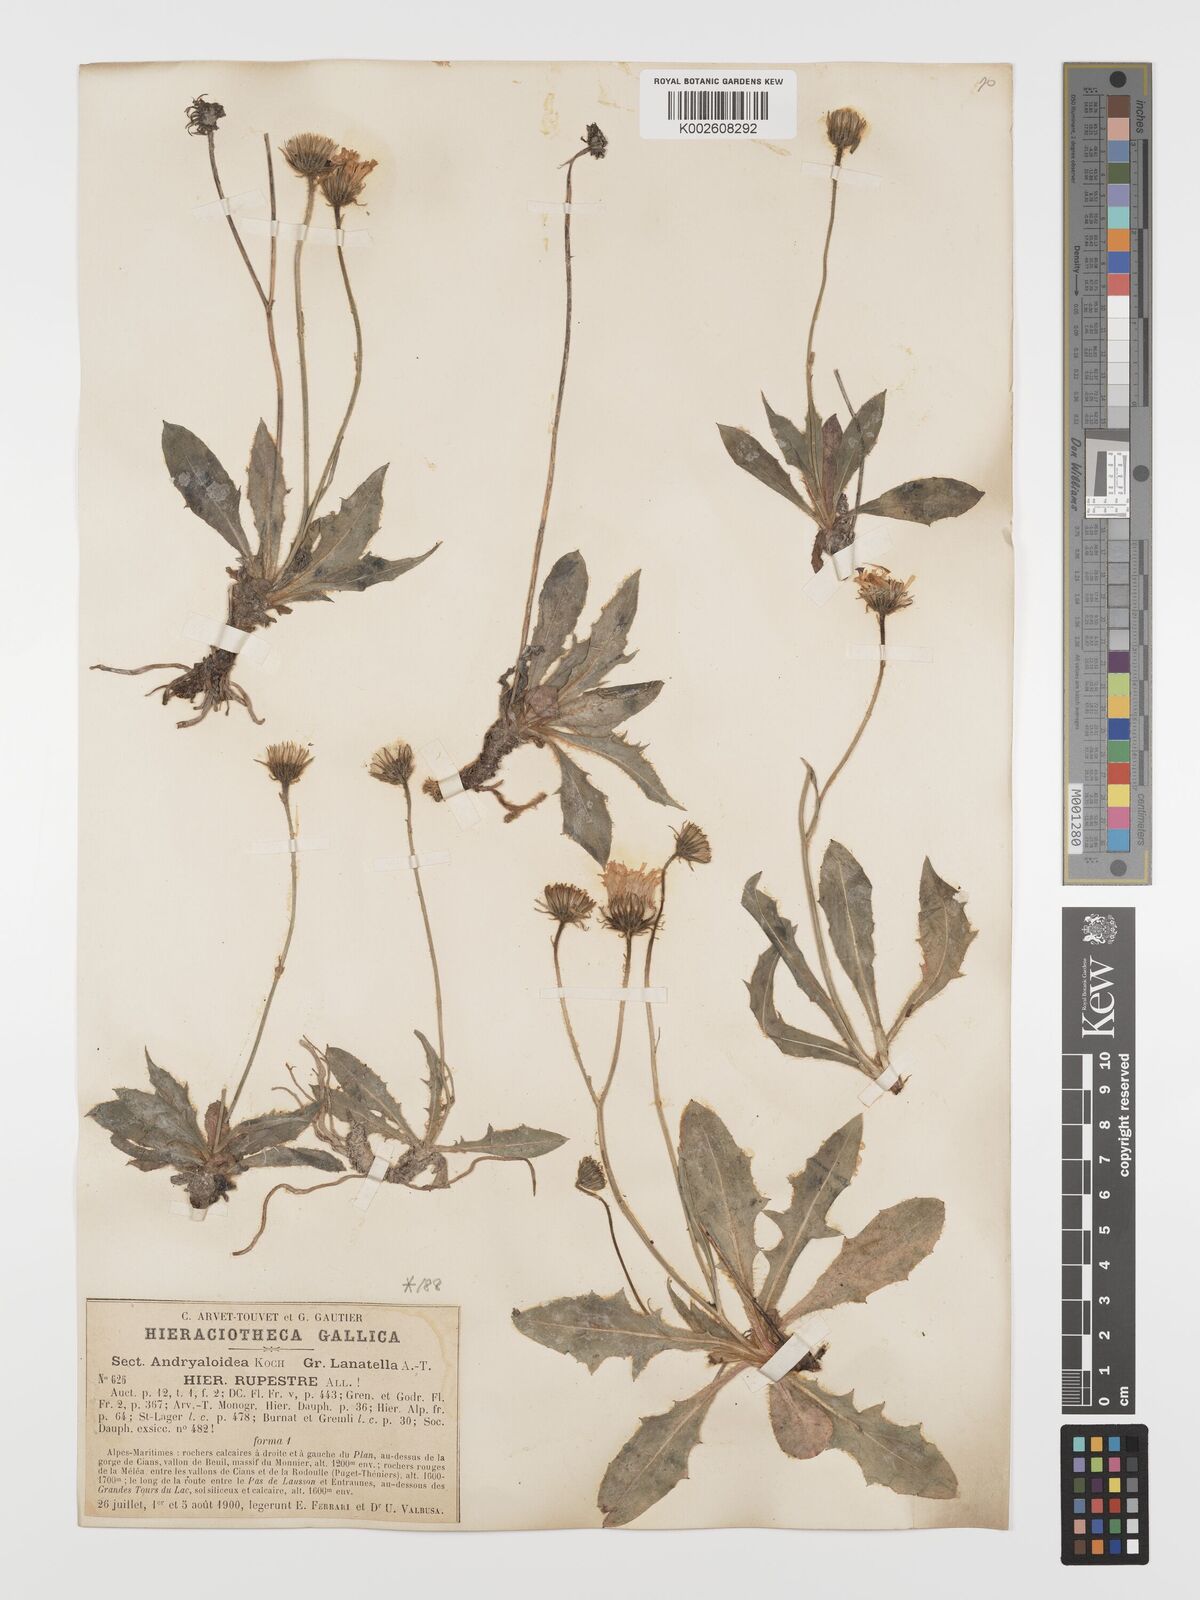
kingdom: Plantae
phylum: Tracheophyta
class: Magnoliopsida
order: Asterales
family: Asteraceae
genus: Hieracium
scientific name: Hieracium rupestre
